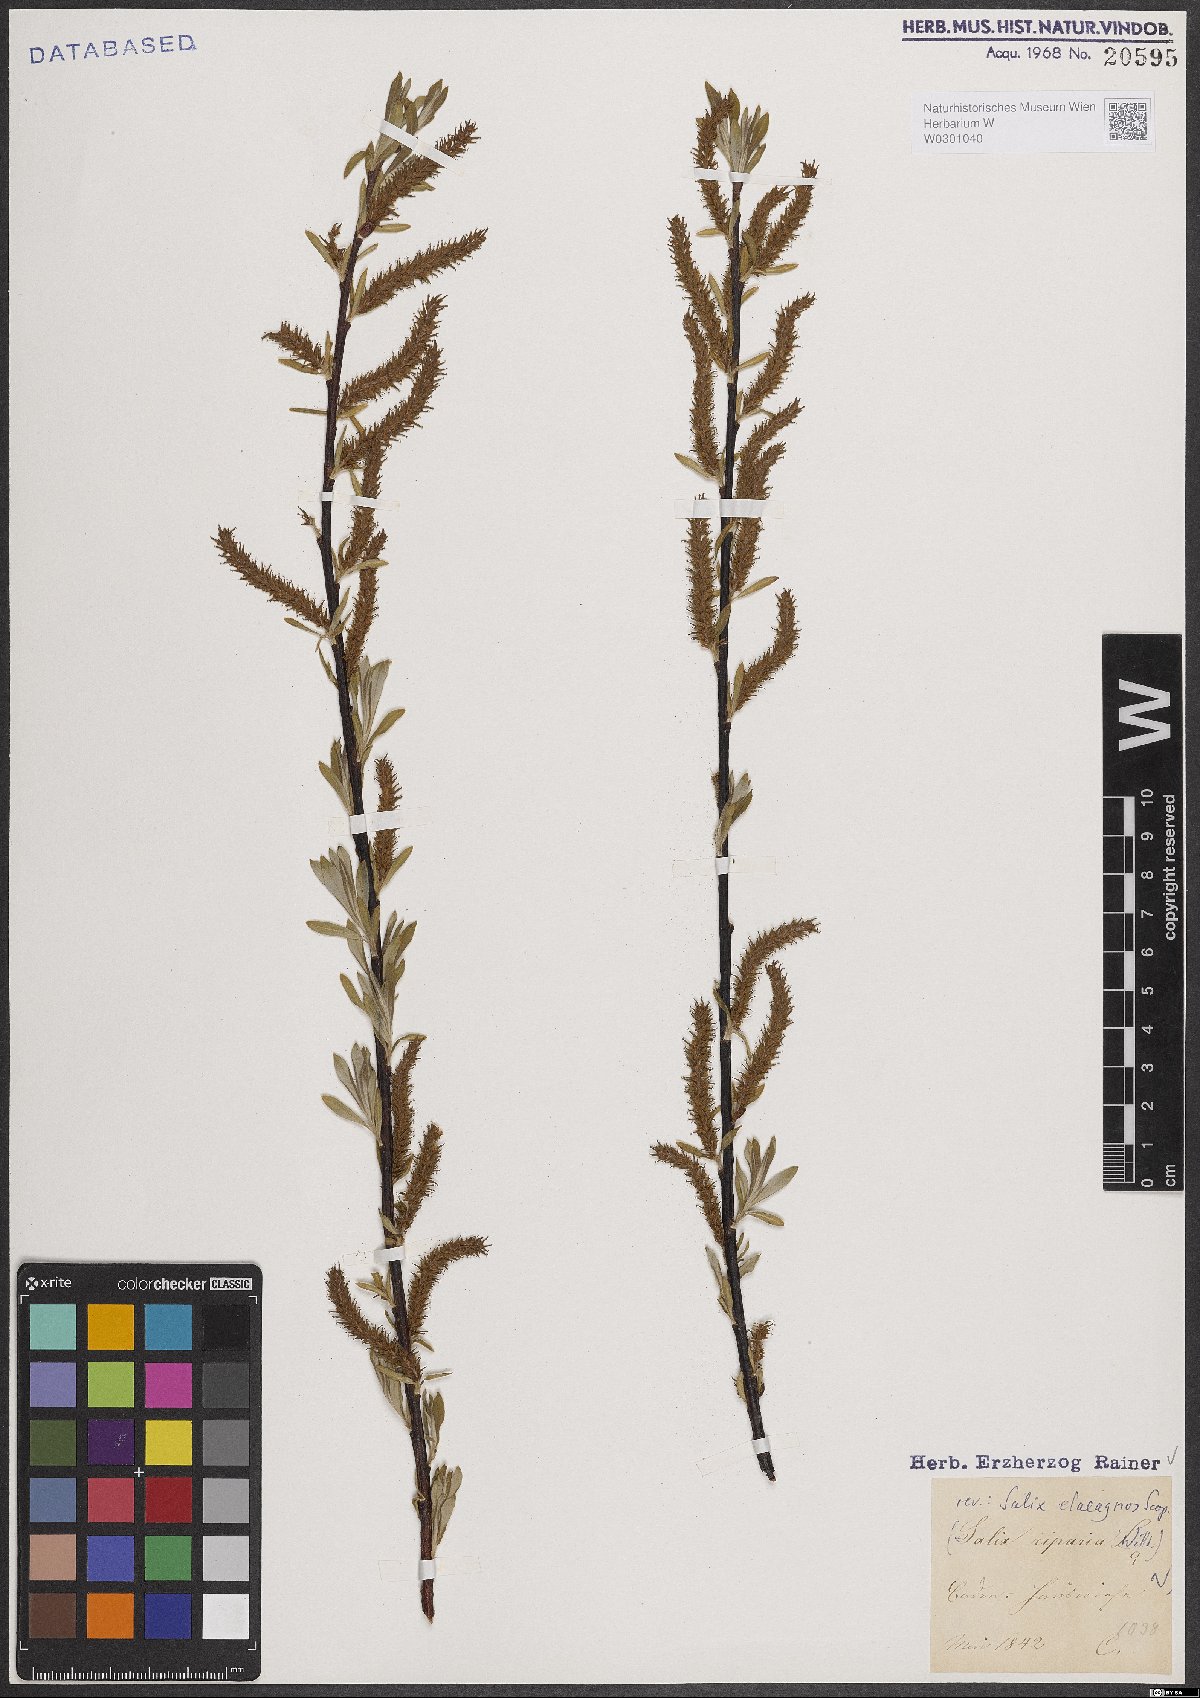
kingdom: Plantae
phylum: Tracheophyta
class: Magnoliopsida
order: Malpighiales
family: Salicaceae
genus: Salix
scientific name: Salix eleagnos
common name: Elaeagnus willow
